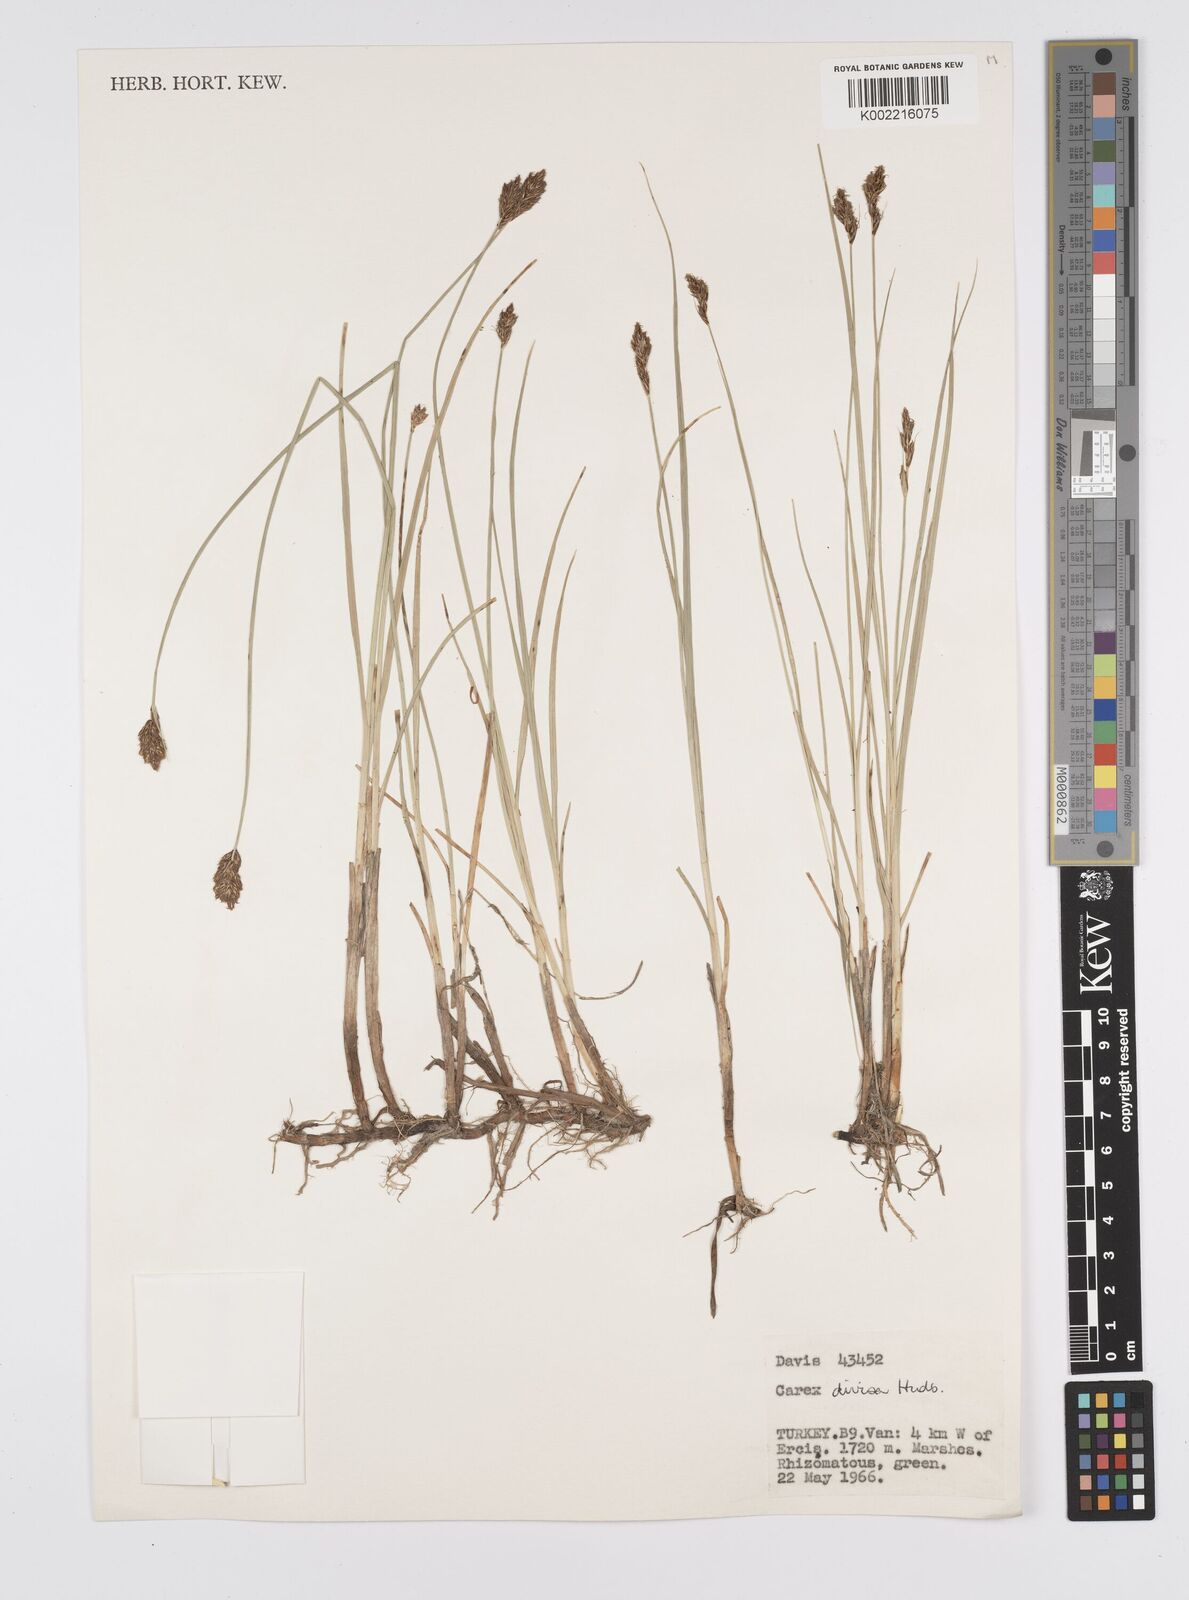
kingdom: Plantae
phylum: Tracheophyta
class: Liliopsida
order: Poales
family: Cyperaceae
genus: Carex
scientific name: Carex divisa
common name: Divided sedge
